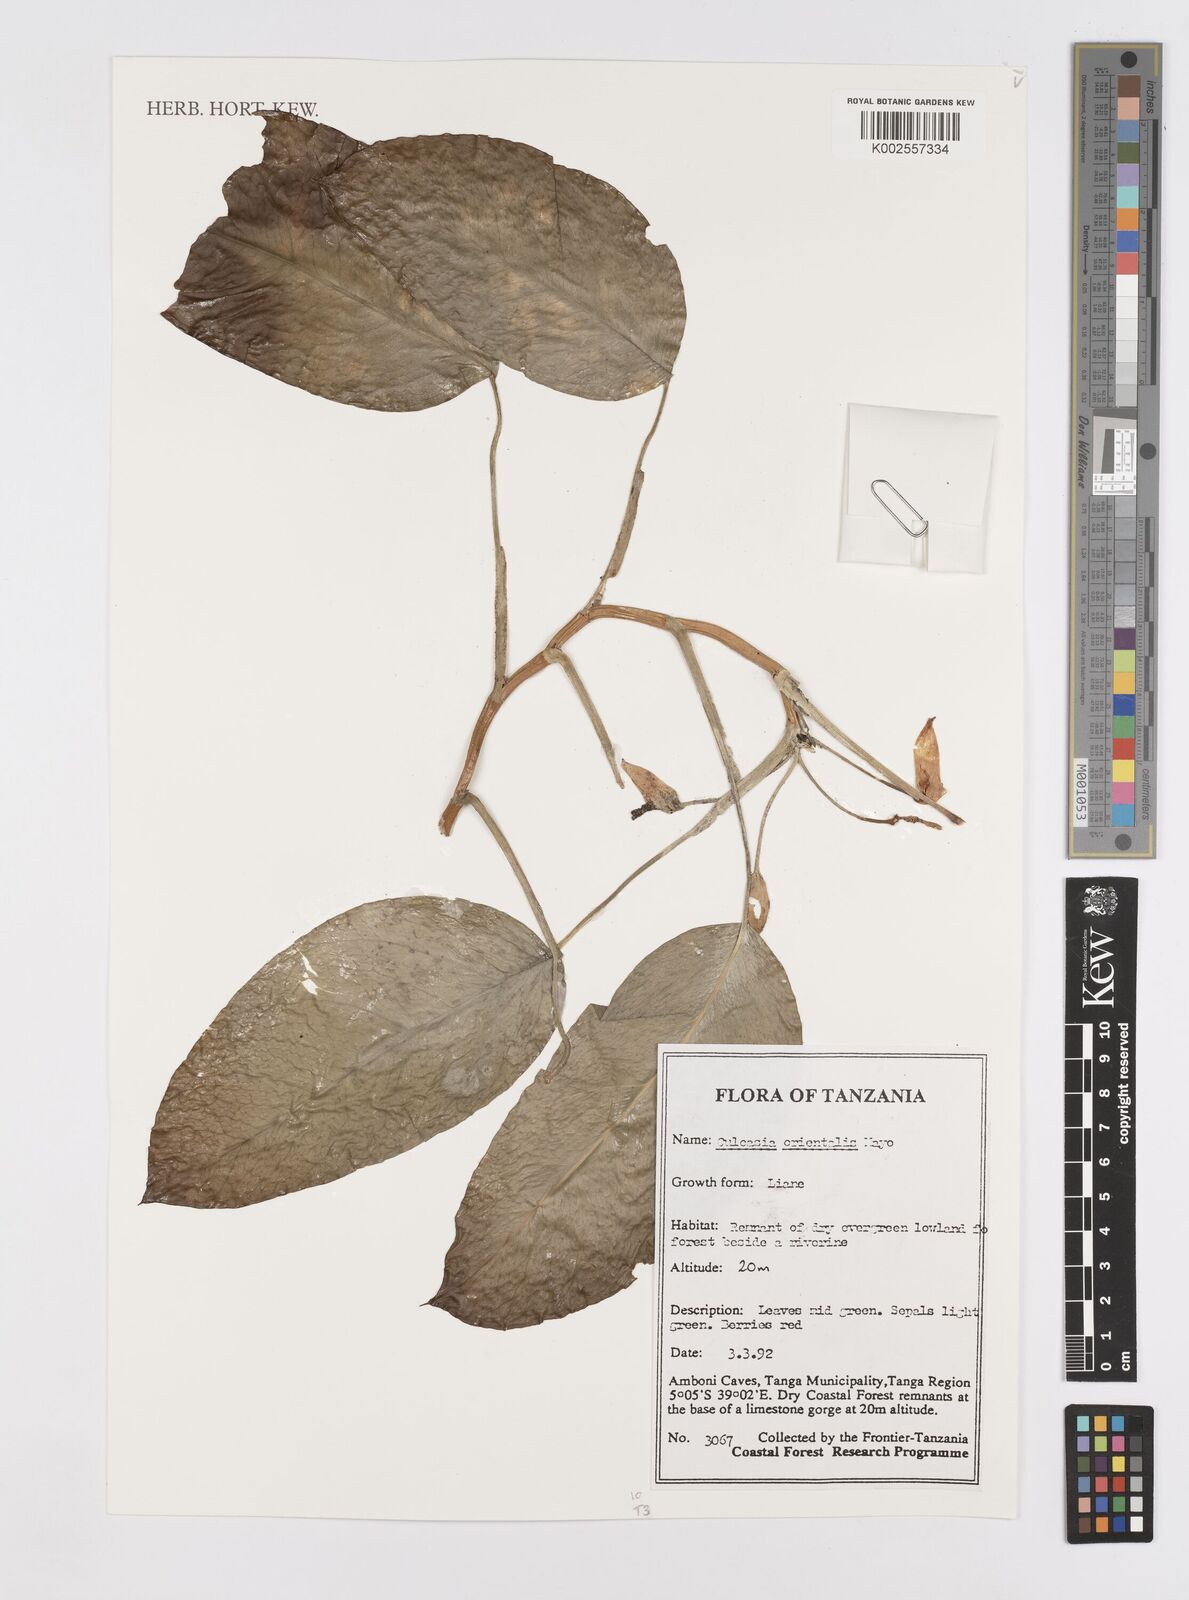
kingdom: Plantae
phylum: Tracheophyta
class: Liliopsida
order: Alismatales
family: Araceae
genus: Culcasia
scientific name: Culcasia orientalis
